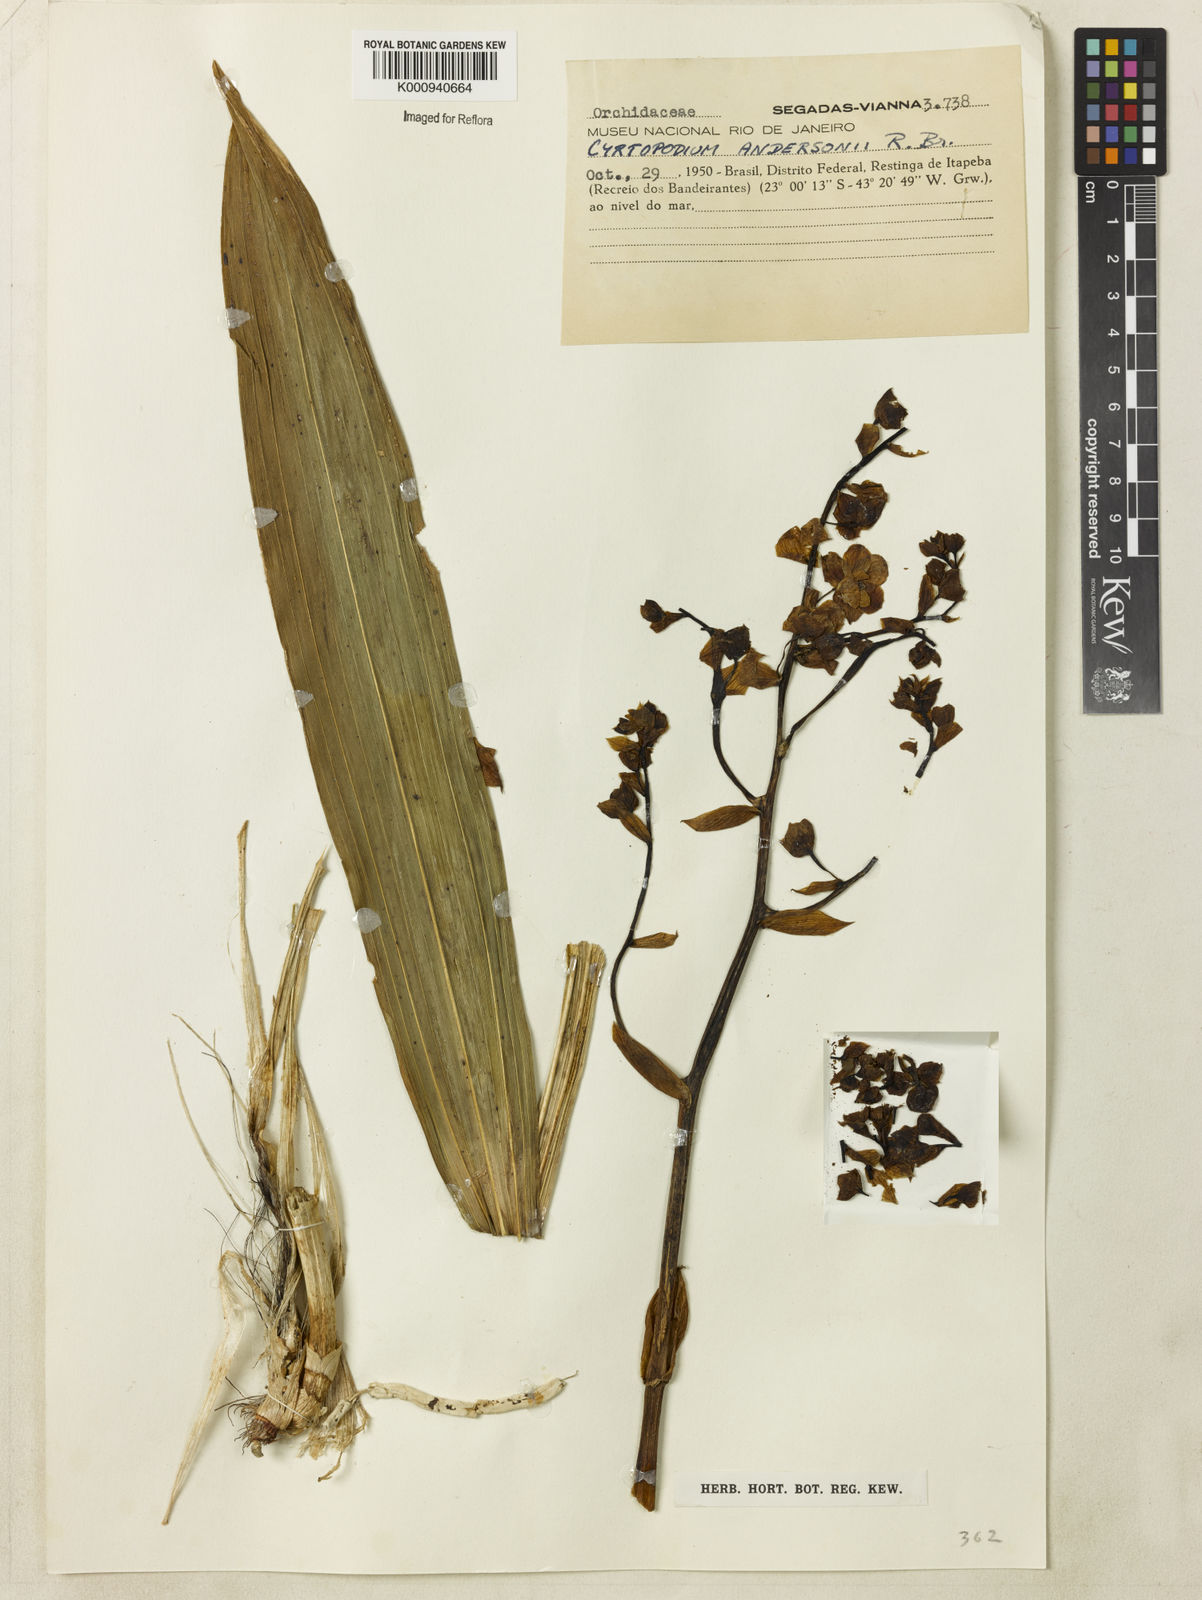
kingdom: Plantae
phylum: Tracheophyta
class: Liliopsida
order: Asparagales
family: Orchidaceae
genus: Cyrtopodium
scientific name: Cyrtopodium flavum
